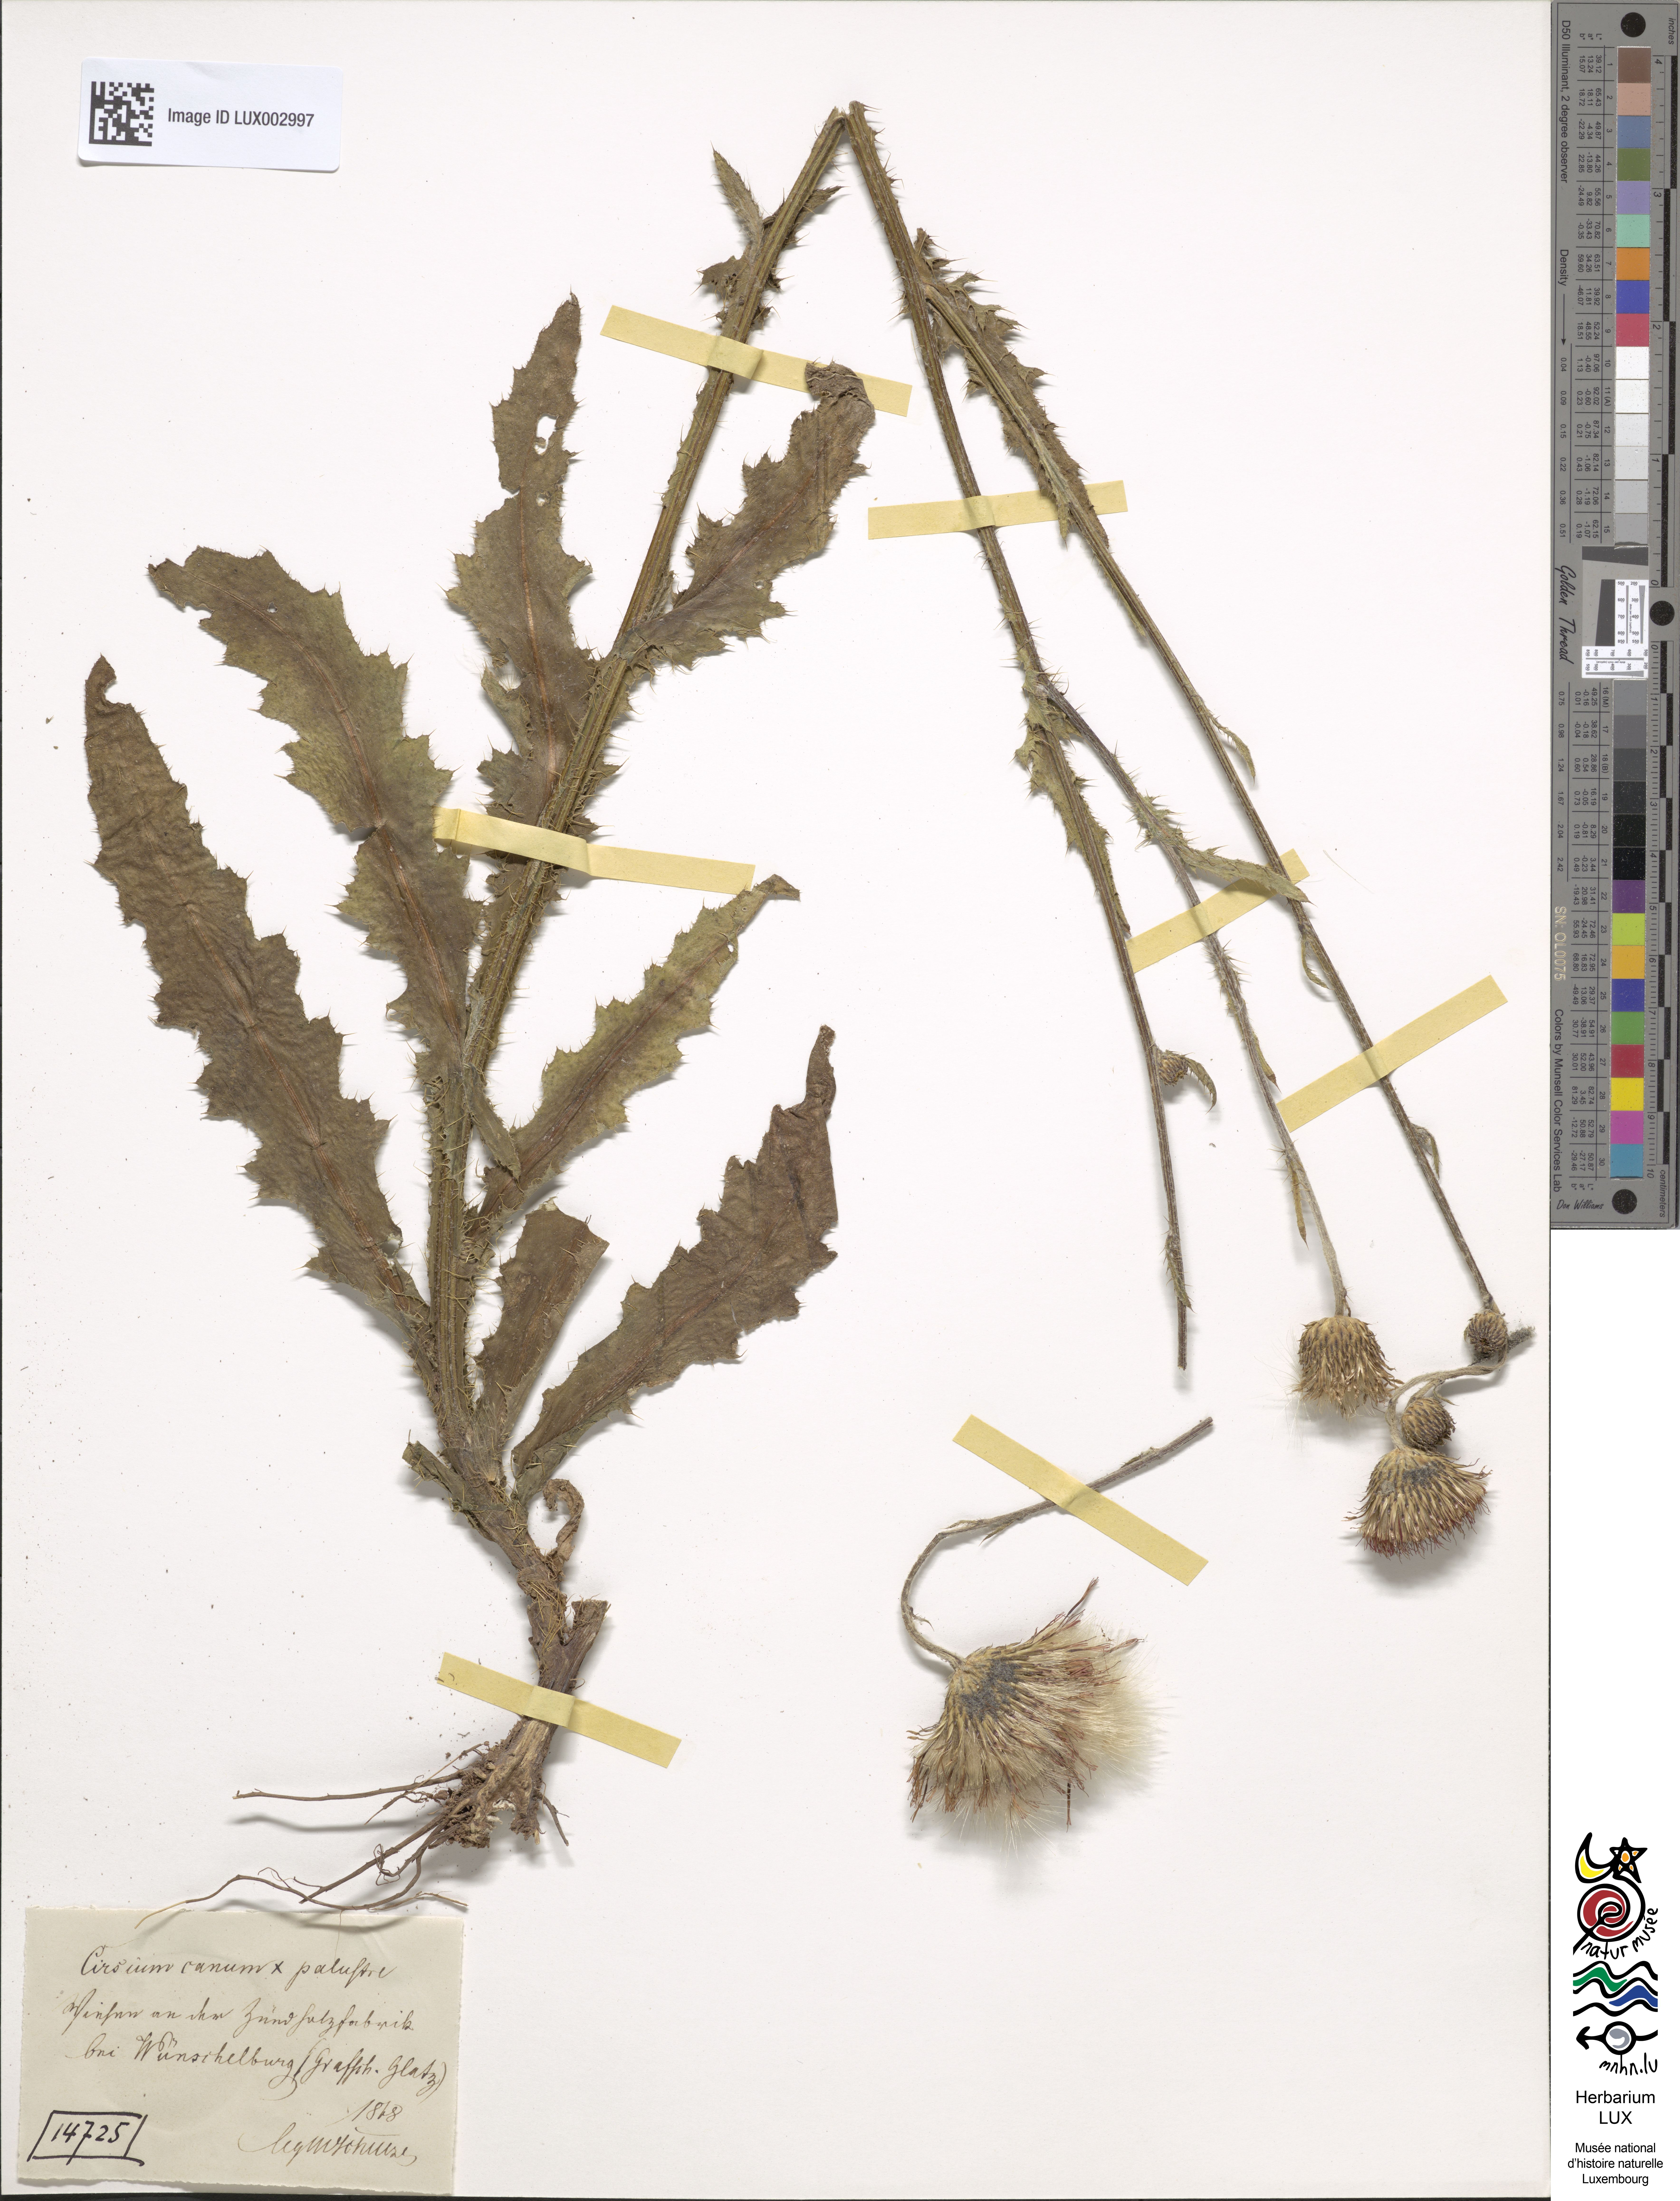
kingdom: Plantae
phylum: Tracheophyta
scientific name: Tracheophyta
